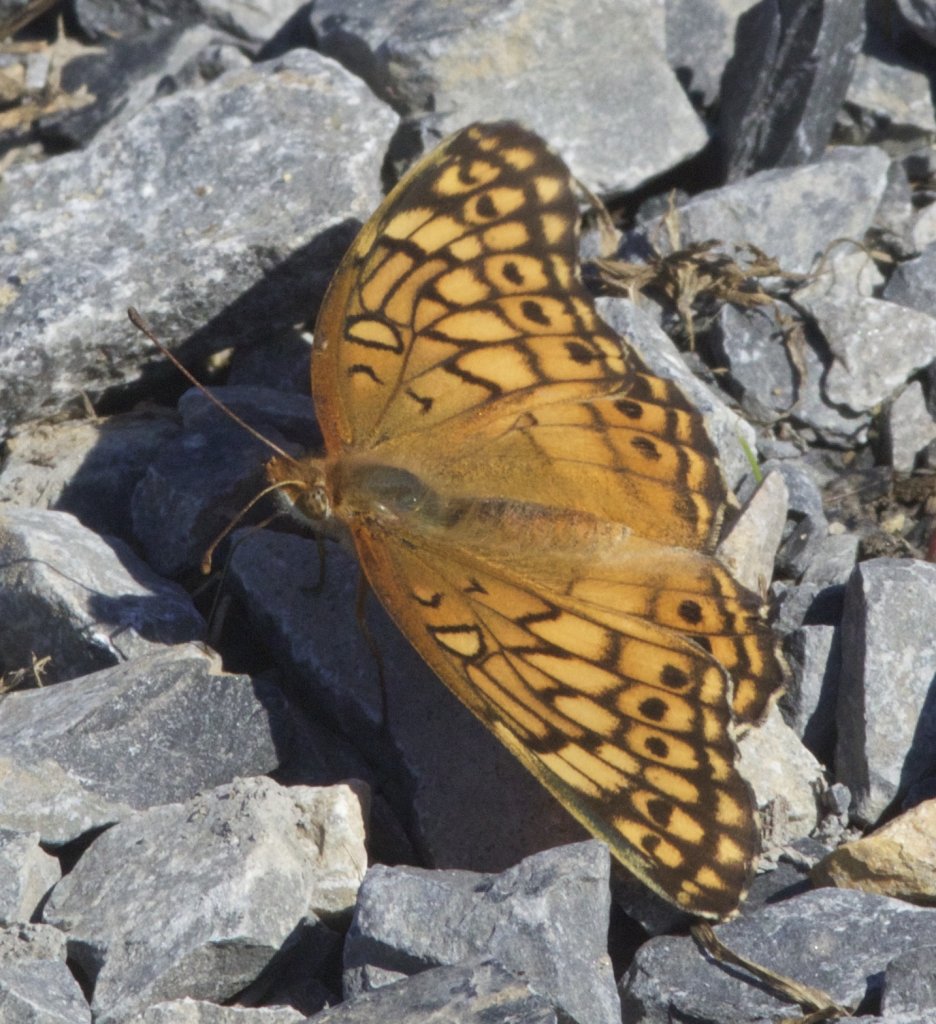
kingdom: Animalia
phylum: Arthropoda
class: Insecta
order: Lepidoptera
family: Nymphalidae
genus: Euptoieta
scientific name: Euptoieta claudia
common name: Variegated Fritillary
